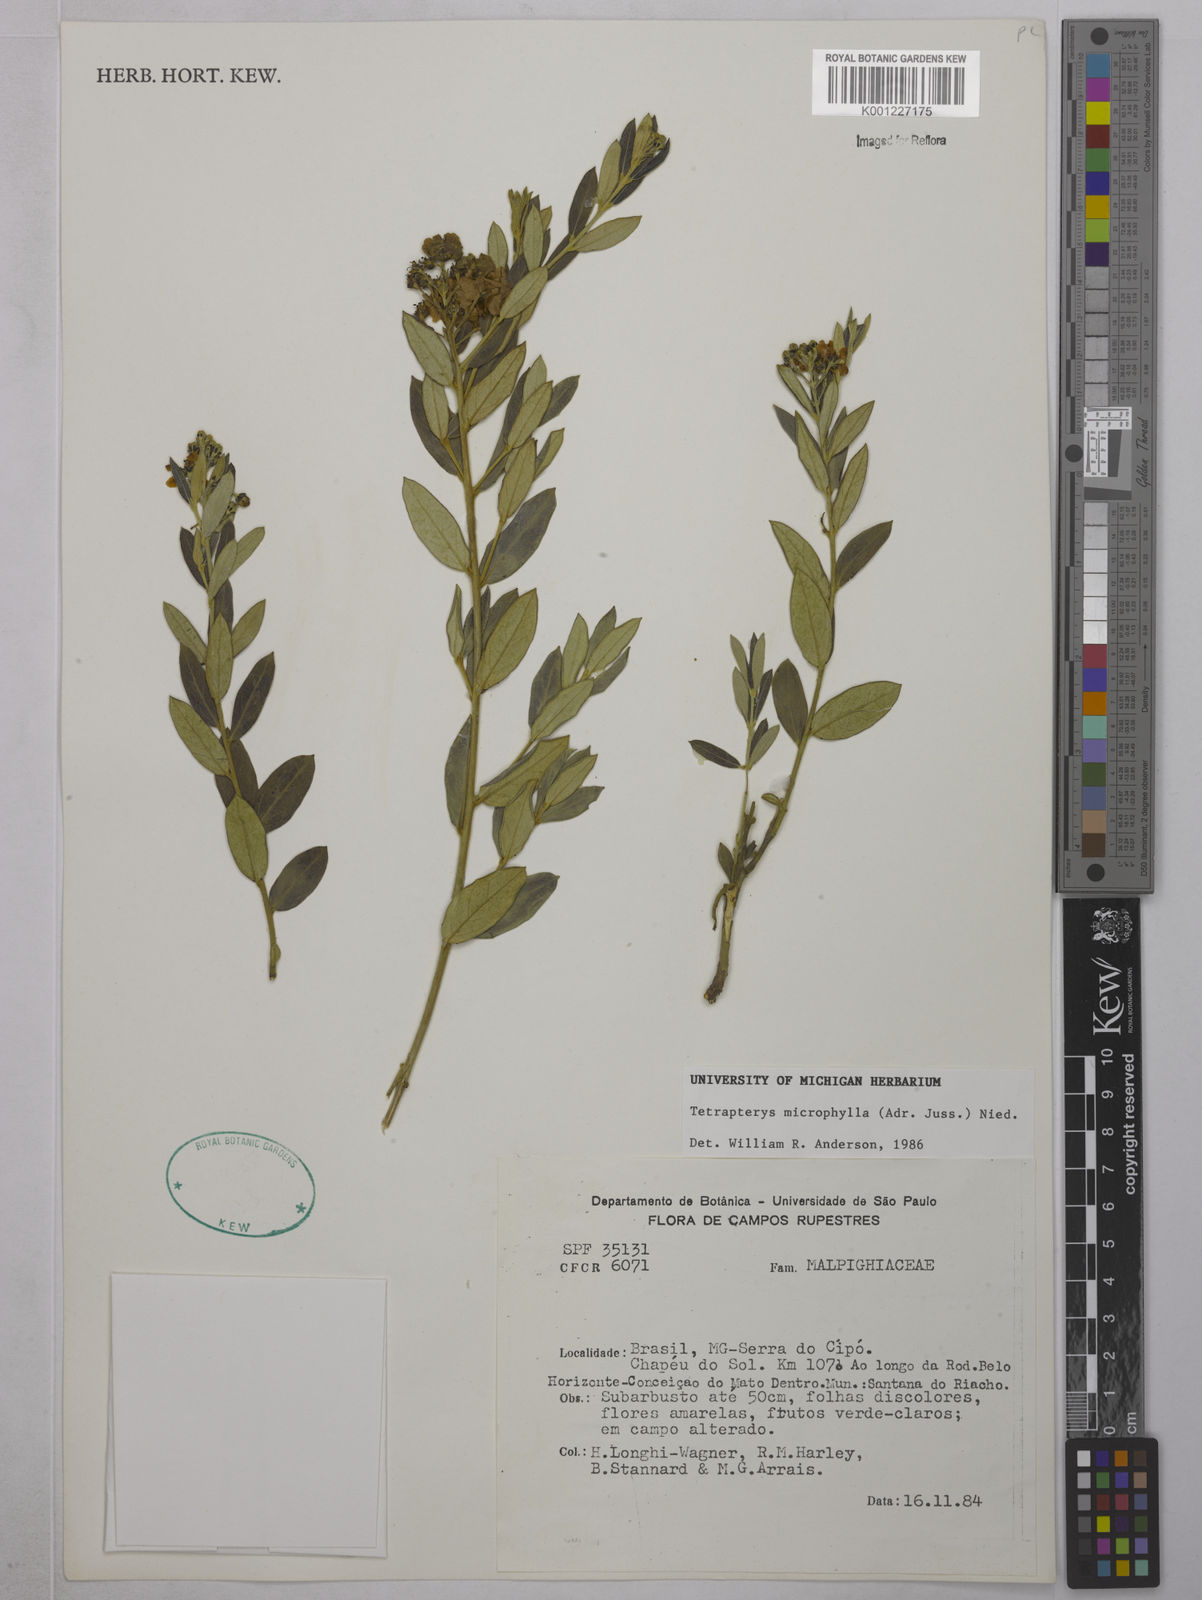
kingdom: Plantae
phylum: Tracheophyta
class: Magnoliopsida
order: Malpighiales
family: Malpighiaceae
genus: Glicophyllum
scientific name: Glicophyllum microphyllum
